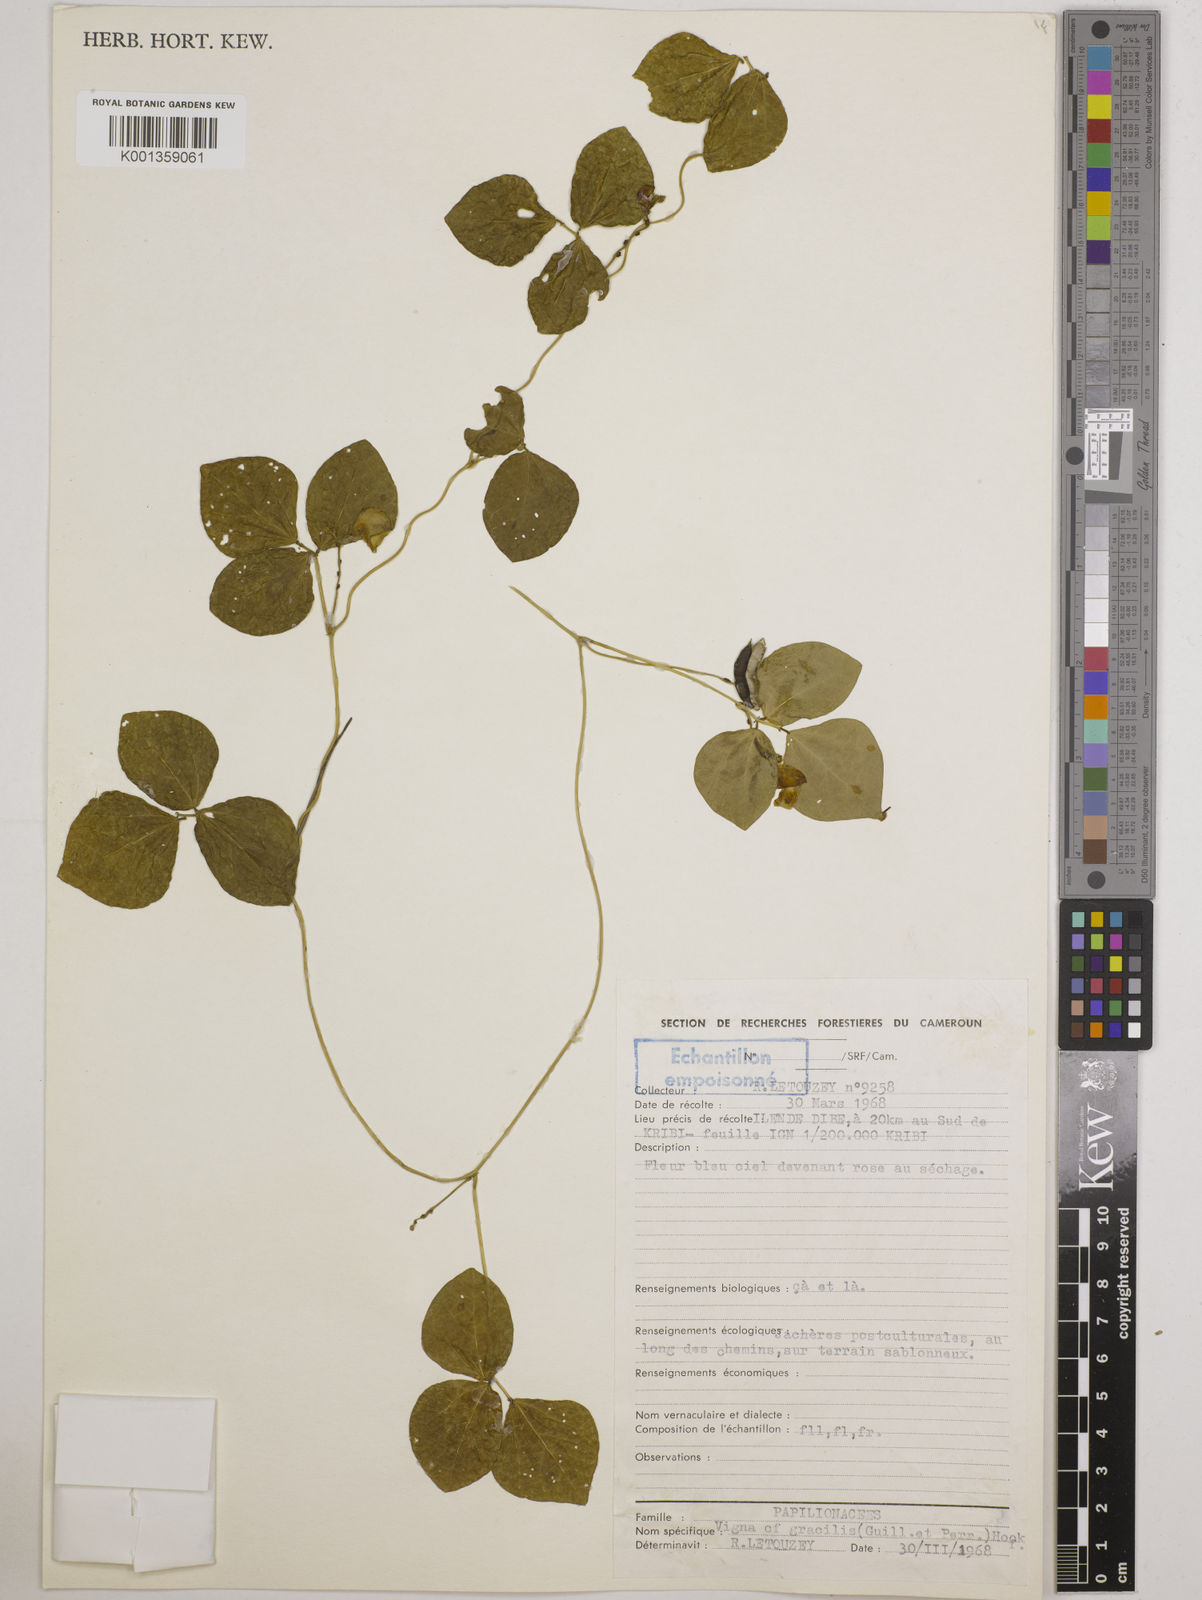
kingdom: Plantae
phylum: Tracheophyta
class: Magnoliopsida
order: Fabales
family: Fabaceae
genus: Vigna
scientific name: Vigna gracilis
